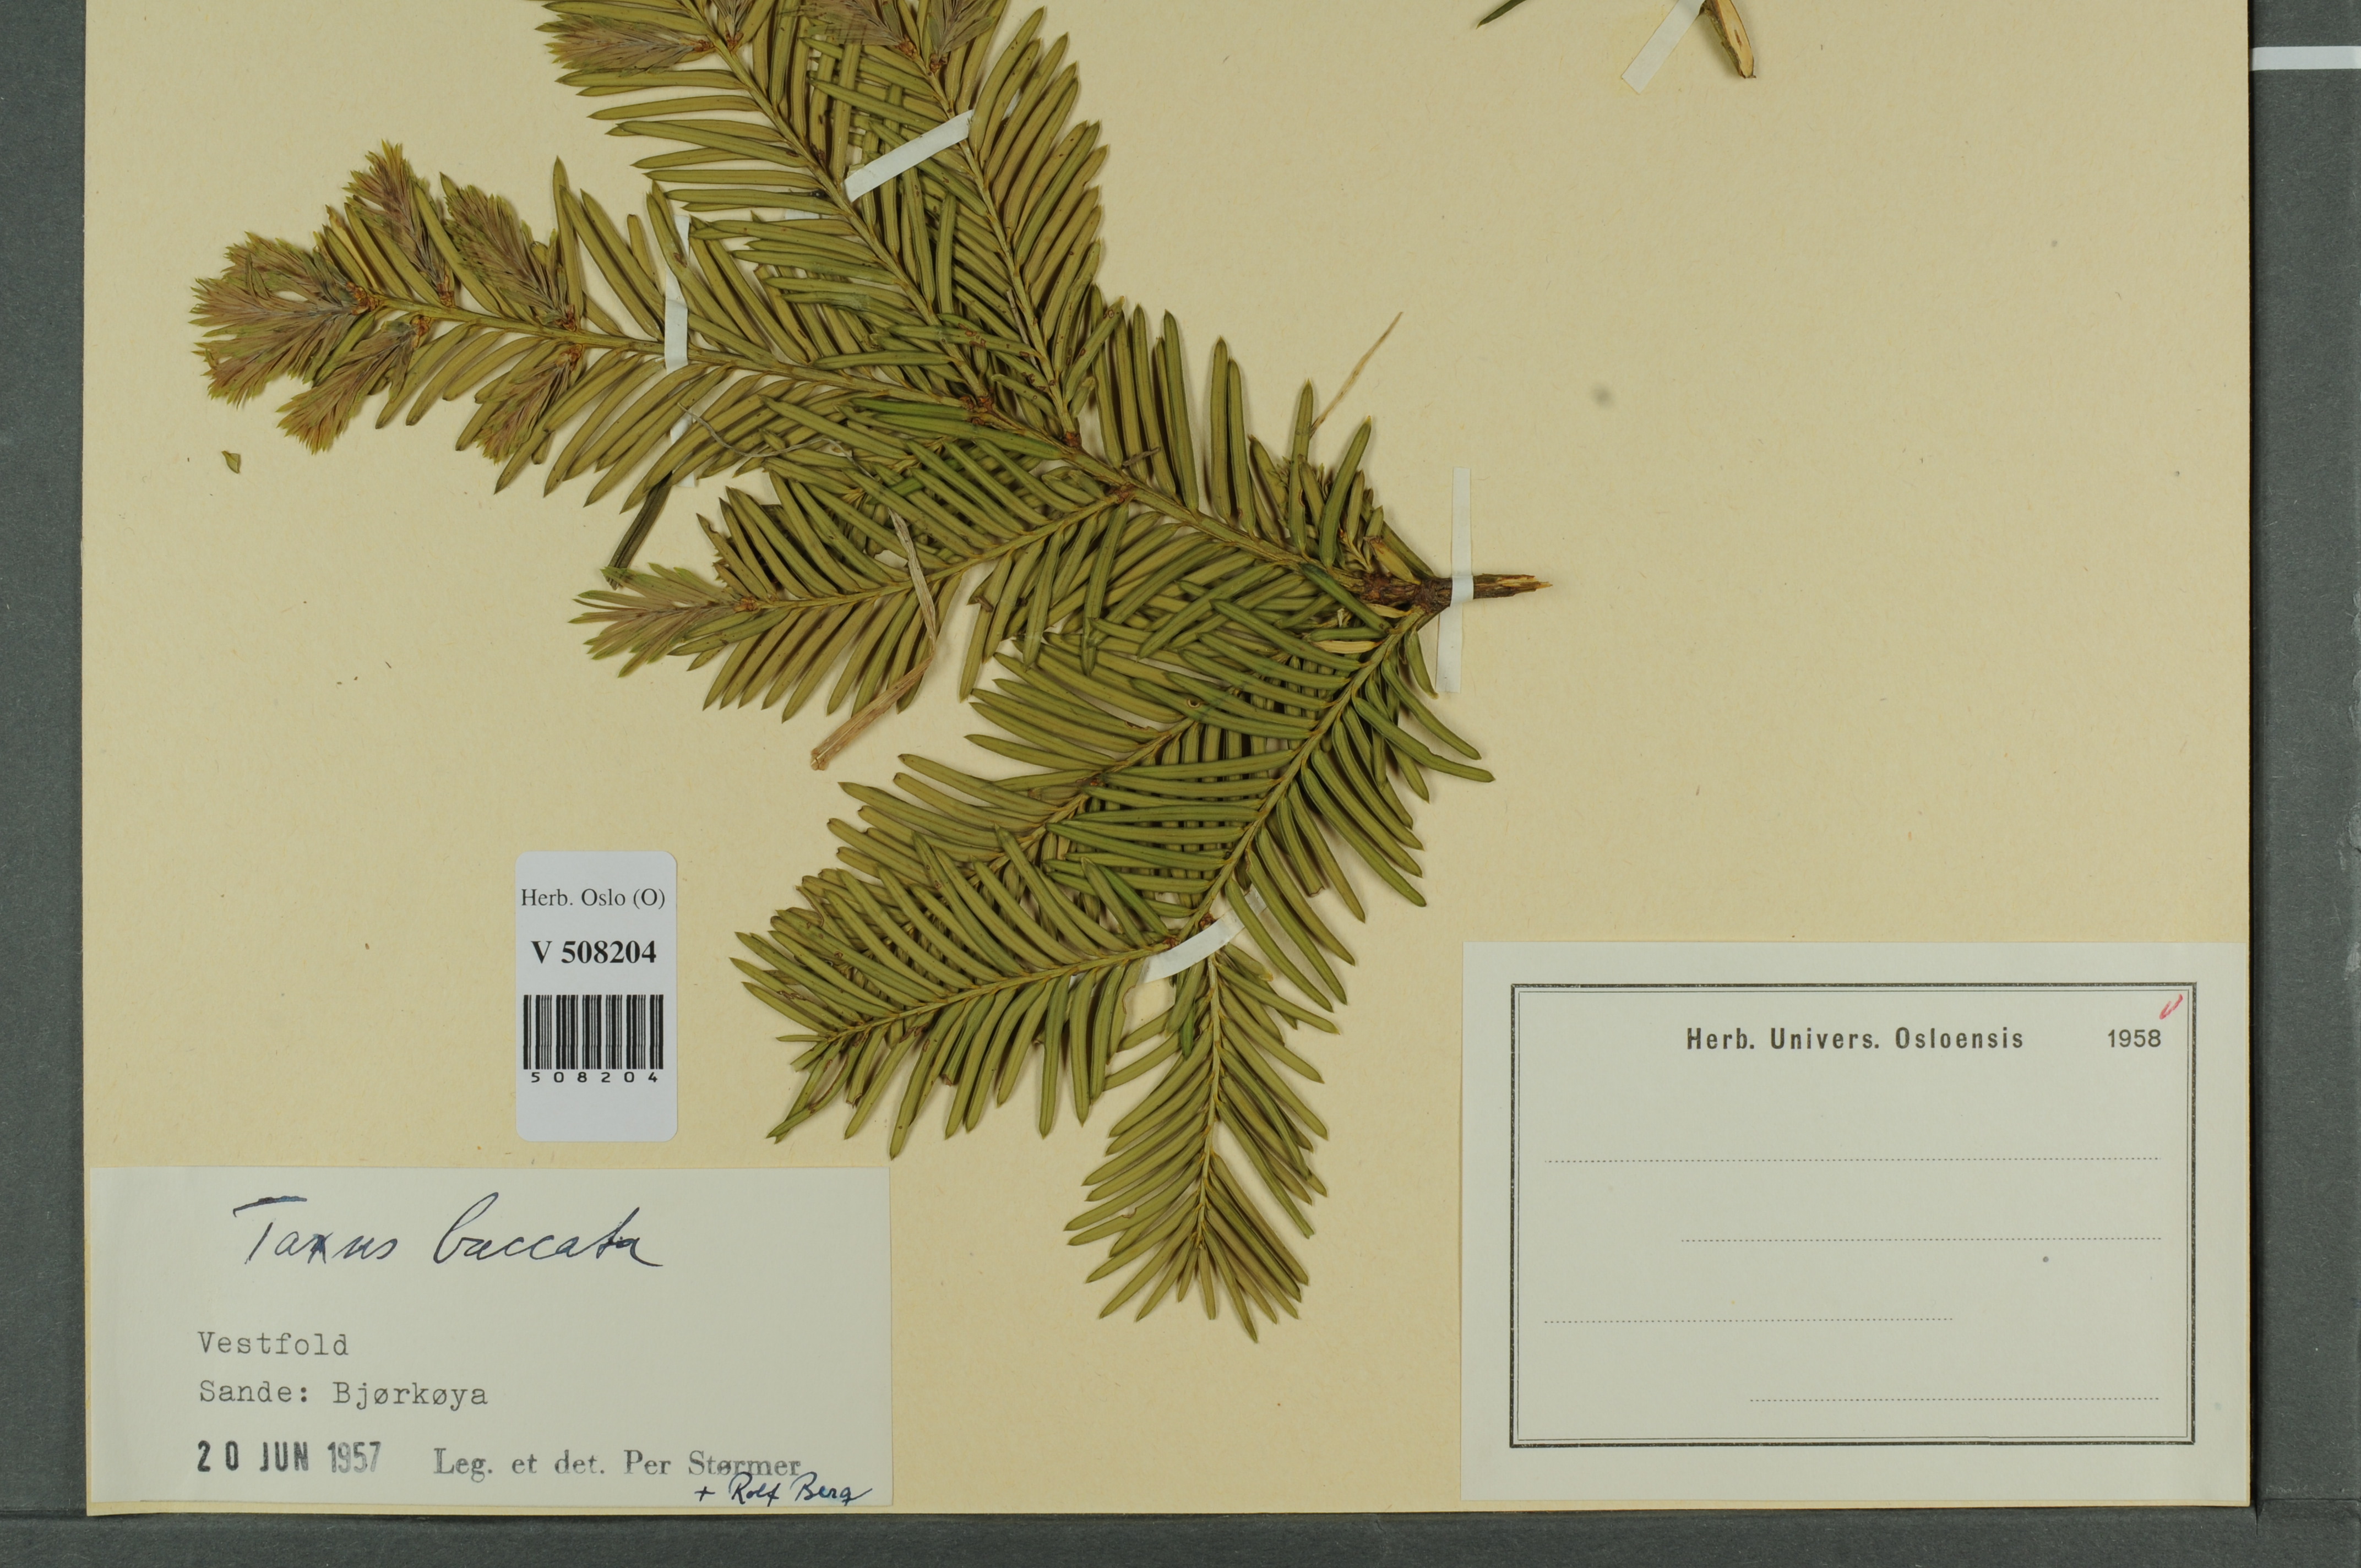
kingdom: Plantae
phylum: Tracheophyta
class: Pinopsida
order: Pinales
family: Taxaceae
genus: Taxus
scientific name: Taxus baccata
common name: Yew
